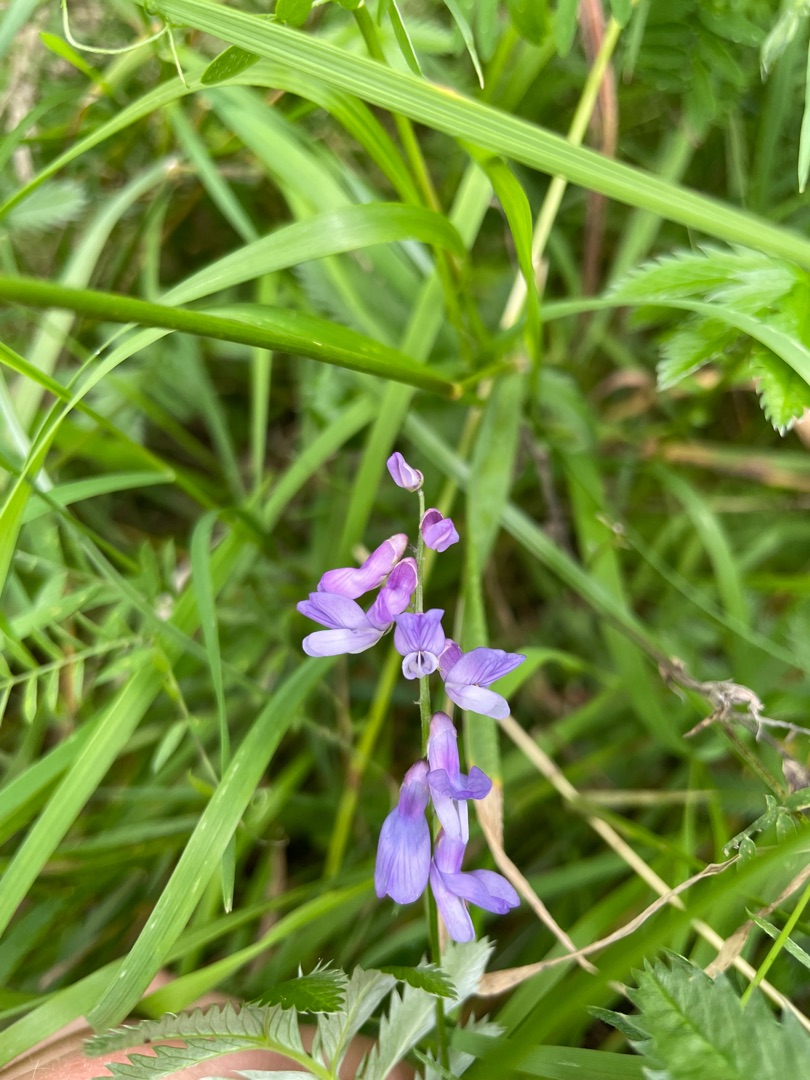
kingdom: Plantae
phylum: Tracheophyta
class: Magnoliopsida
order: Fabales
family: Fabaceae
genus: Vicia
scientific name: Vicia cracca
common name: Muse-vikke
